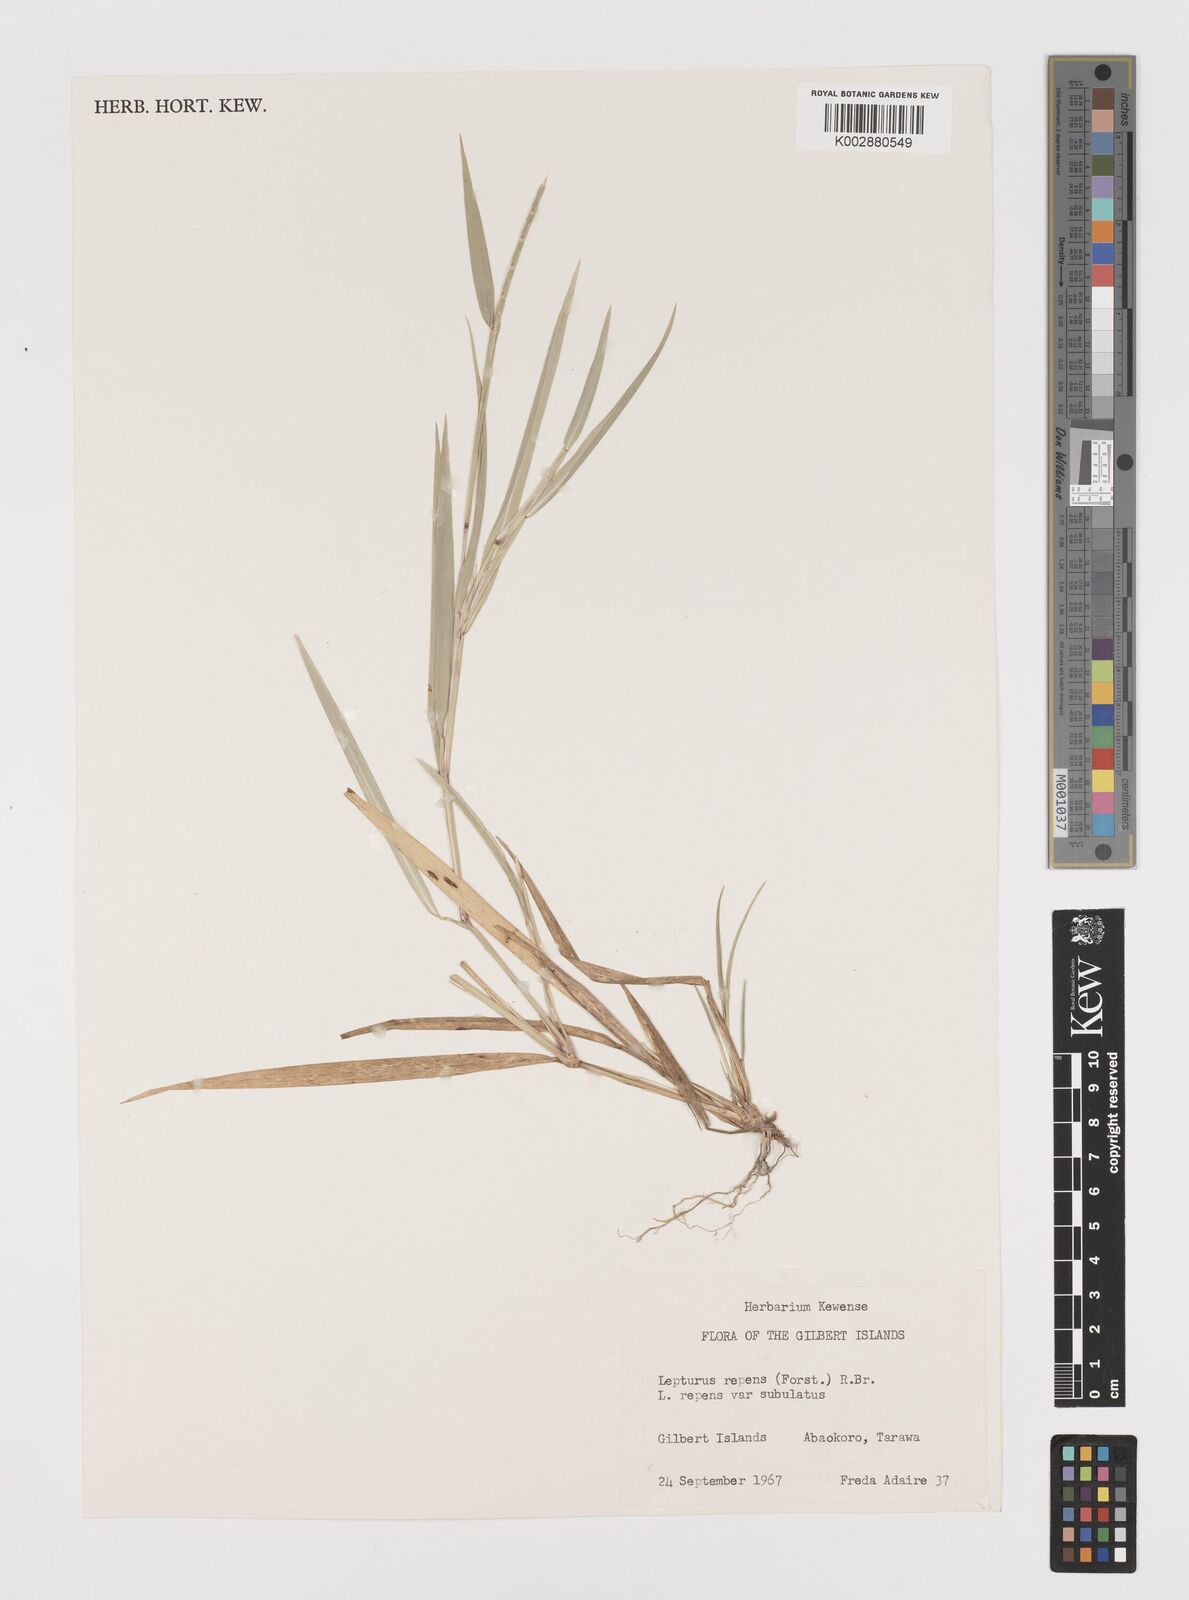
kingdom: Plantae
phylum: Tracheophyta
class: Liliopsida
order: Poales
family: Poaceae
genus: Lepturus
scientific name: Lepturus repens
